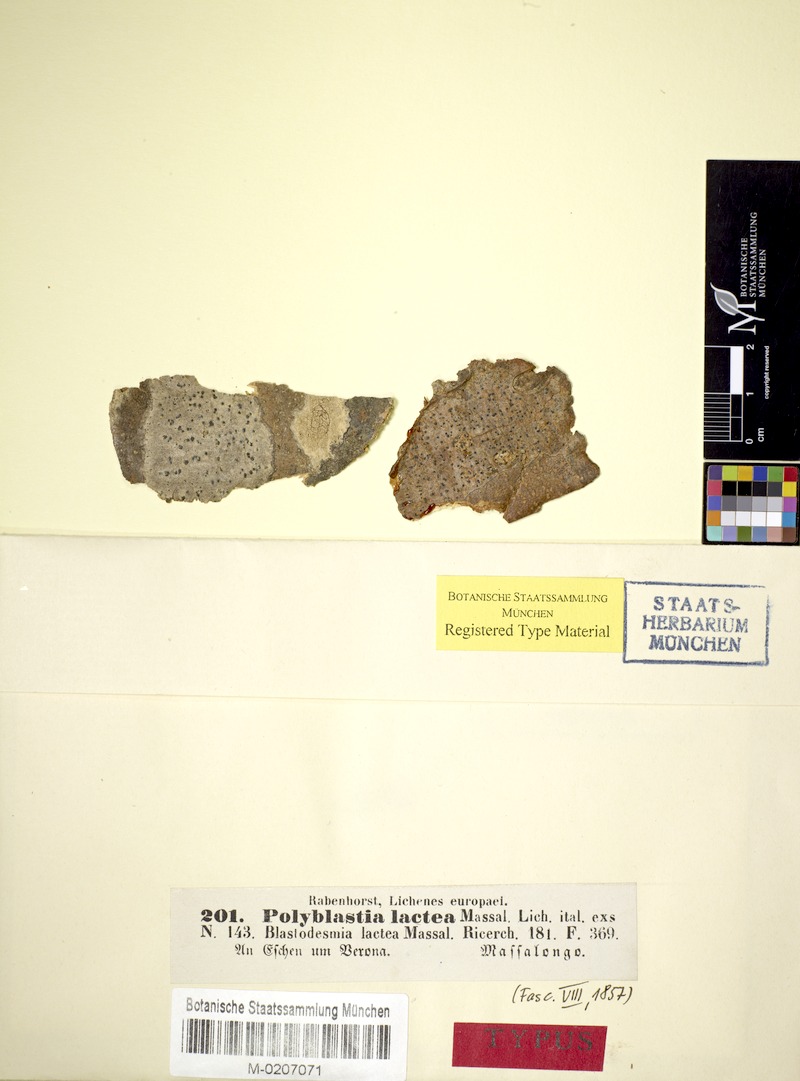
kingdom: Fungi
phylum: Ascomycota
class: Lecanoromycetes
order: Ostropales
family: Thelenellaceae
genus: Julella
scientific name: Julella lactea
